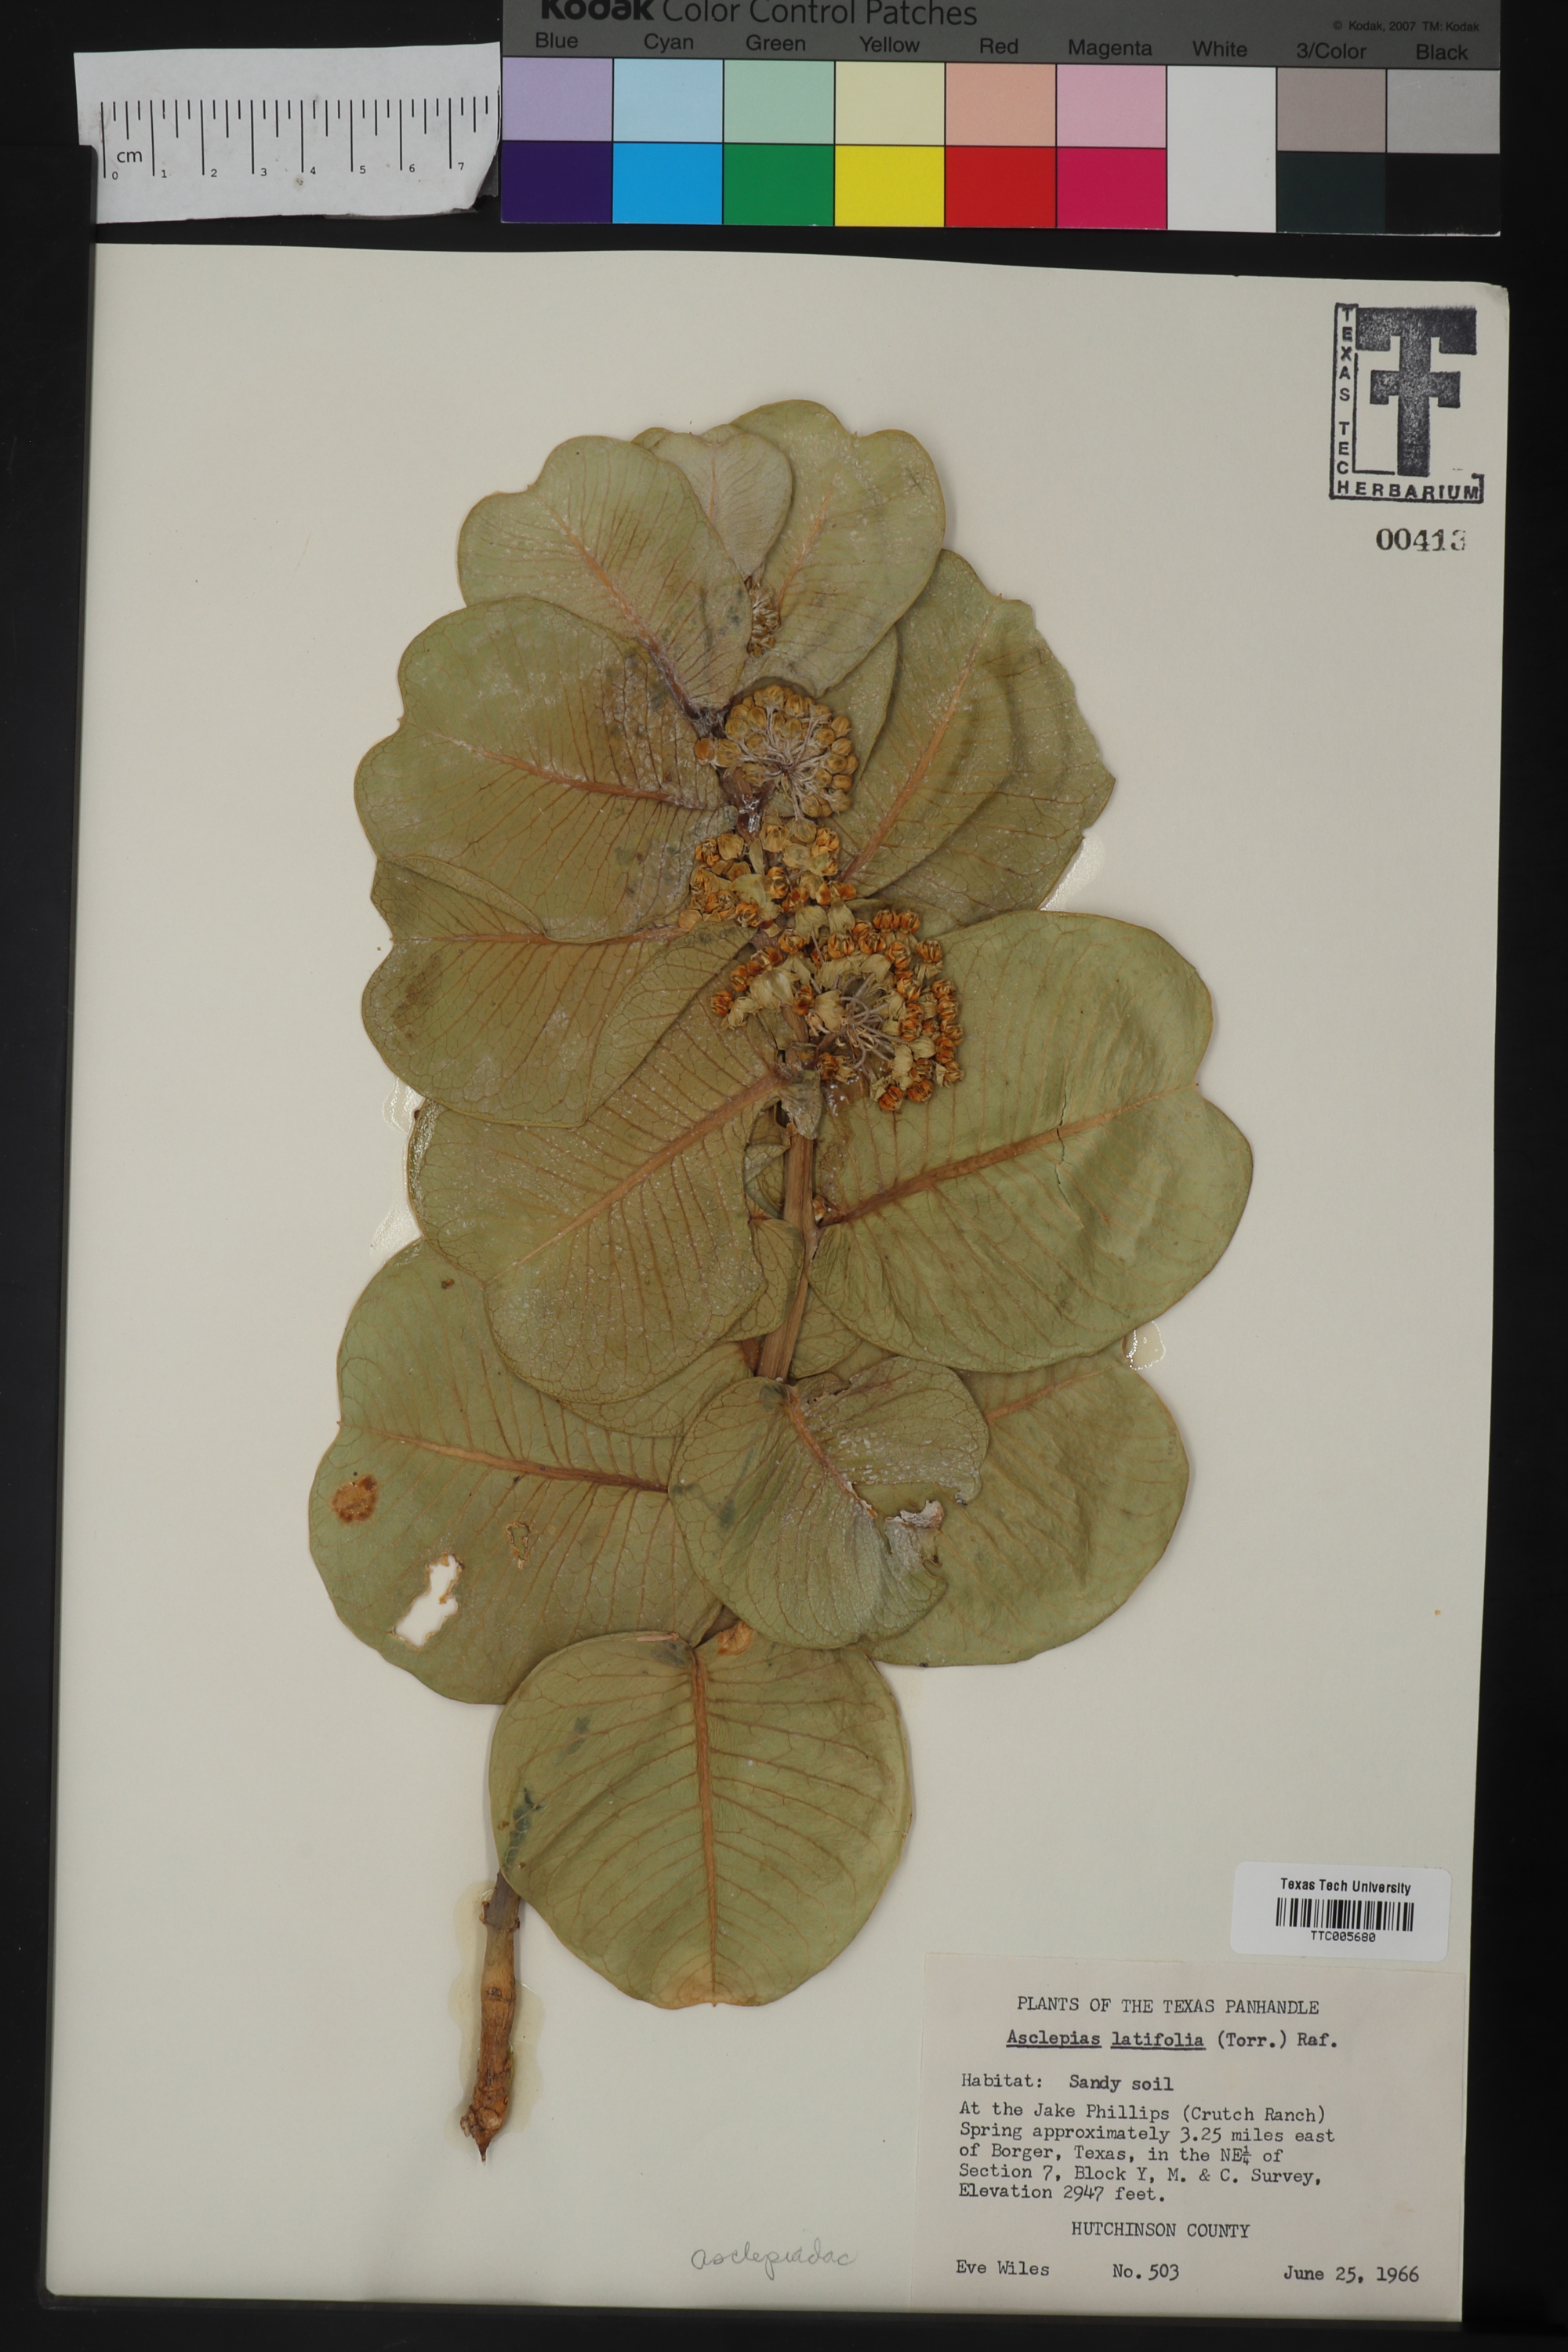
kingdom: Plantae
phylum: Tracheophyta
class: Magnoliopsida
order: Gentianales
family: Apocynaceae
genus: Asclepias
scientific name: Asclepias latifolia
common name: Broadleaf milkweed
